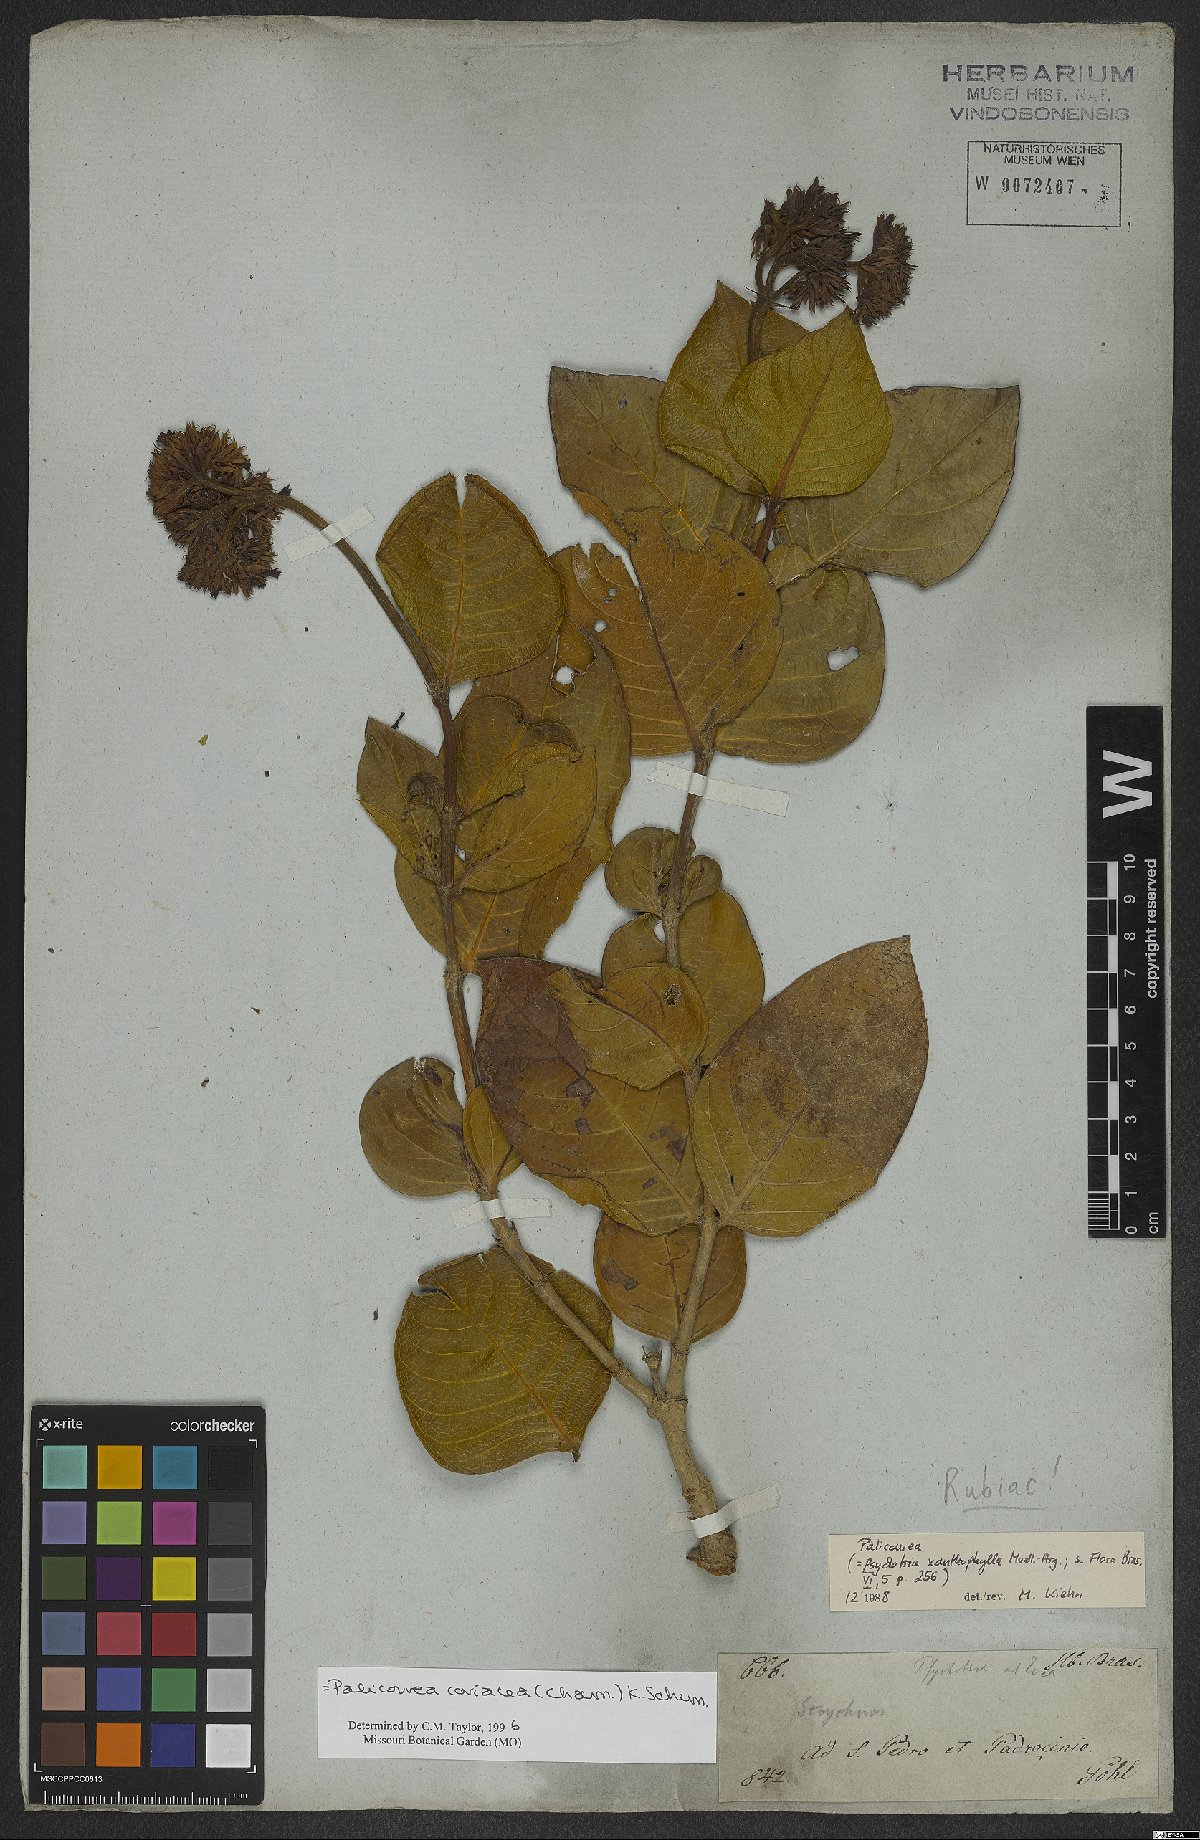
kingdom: Plantae
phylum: Tracheophyta
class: Magnoliopsida
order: Gentianales
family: Rubiaceae
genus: Palicourea
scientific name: Palicourea coriacea
